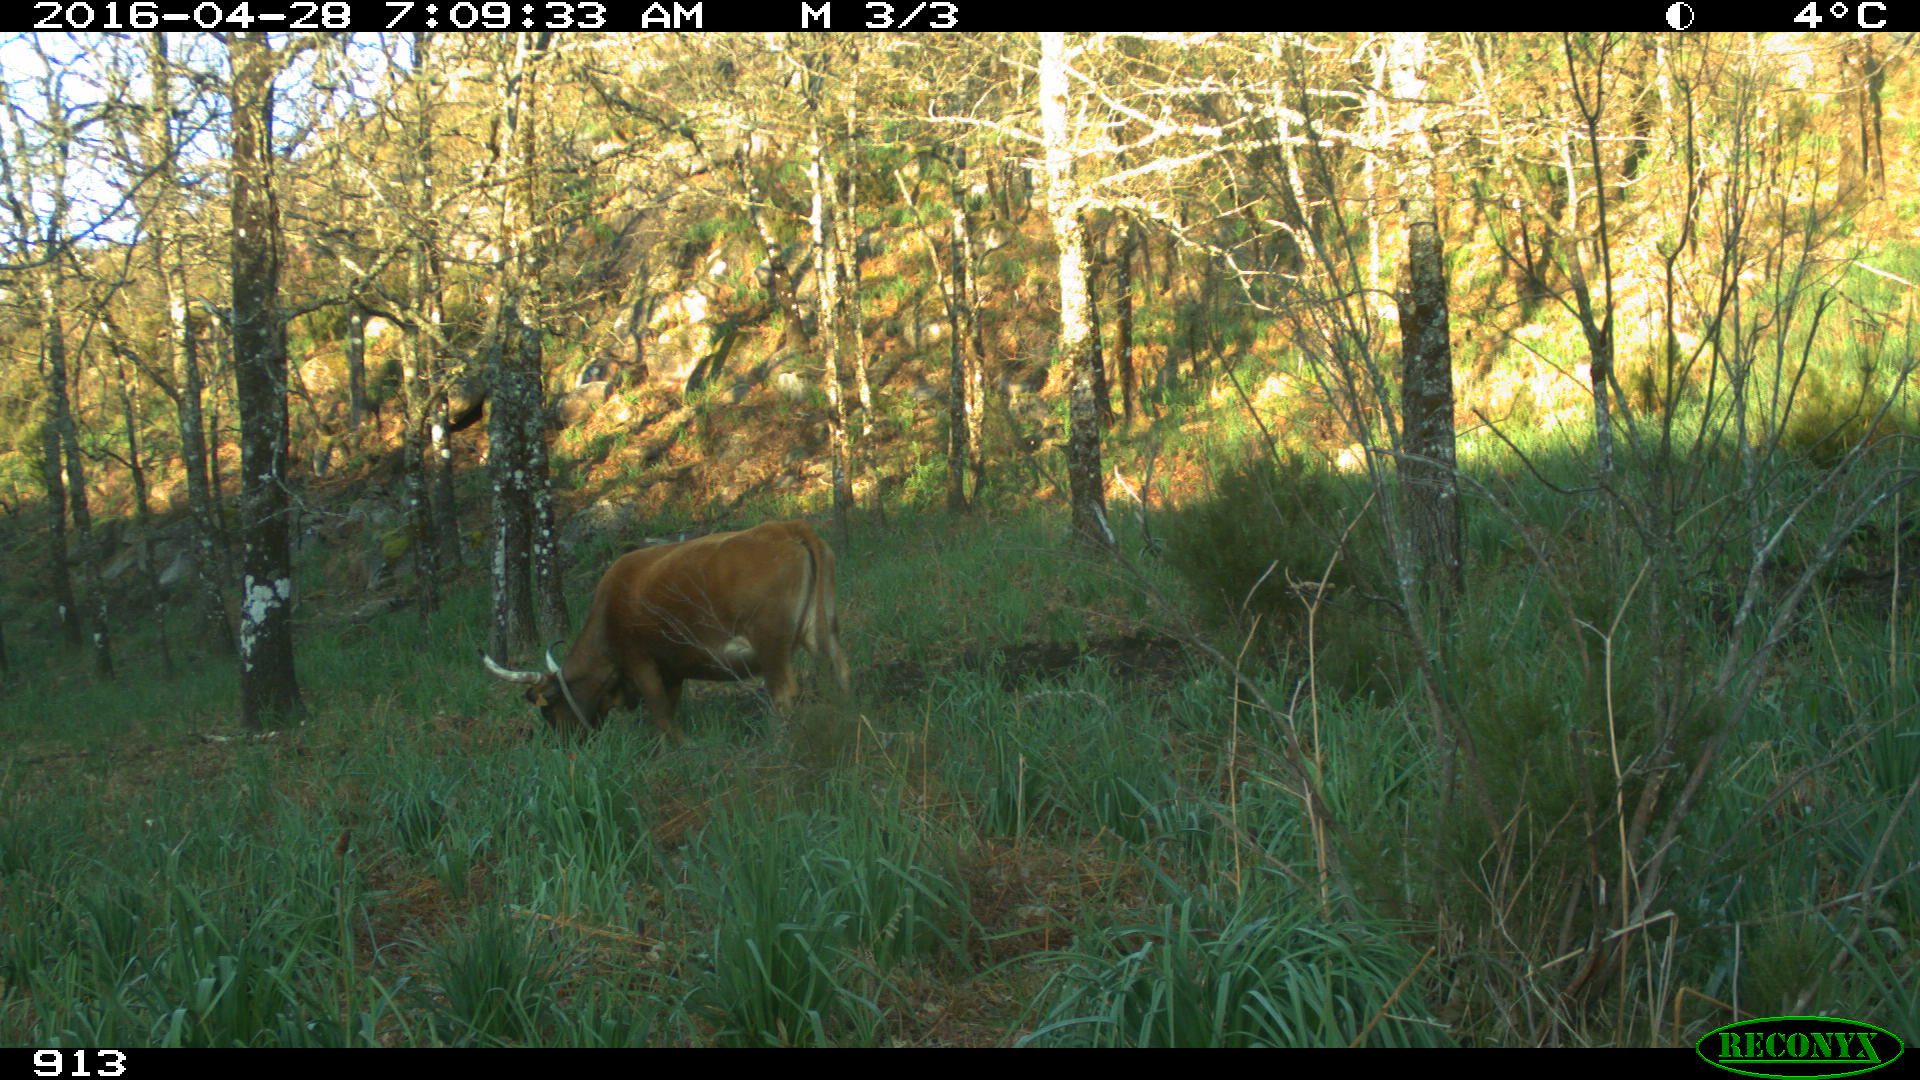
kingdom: Animalia
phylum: Chordata
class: Mammalia
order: Artiodactyla
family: Bovidae
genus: Bos
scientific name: Bos taurus
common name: Domesticated cattle
